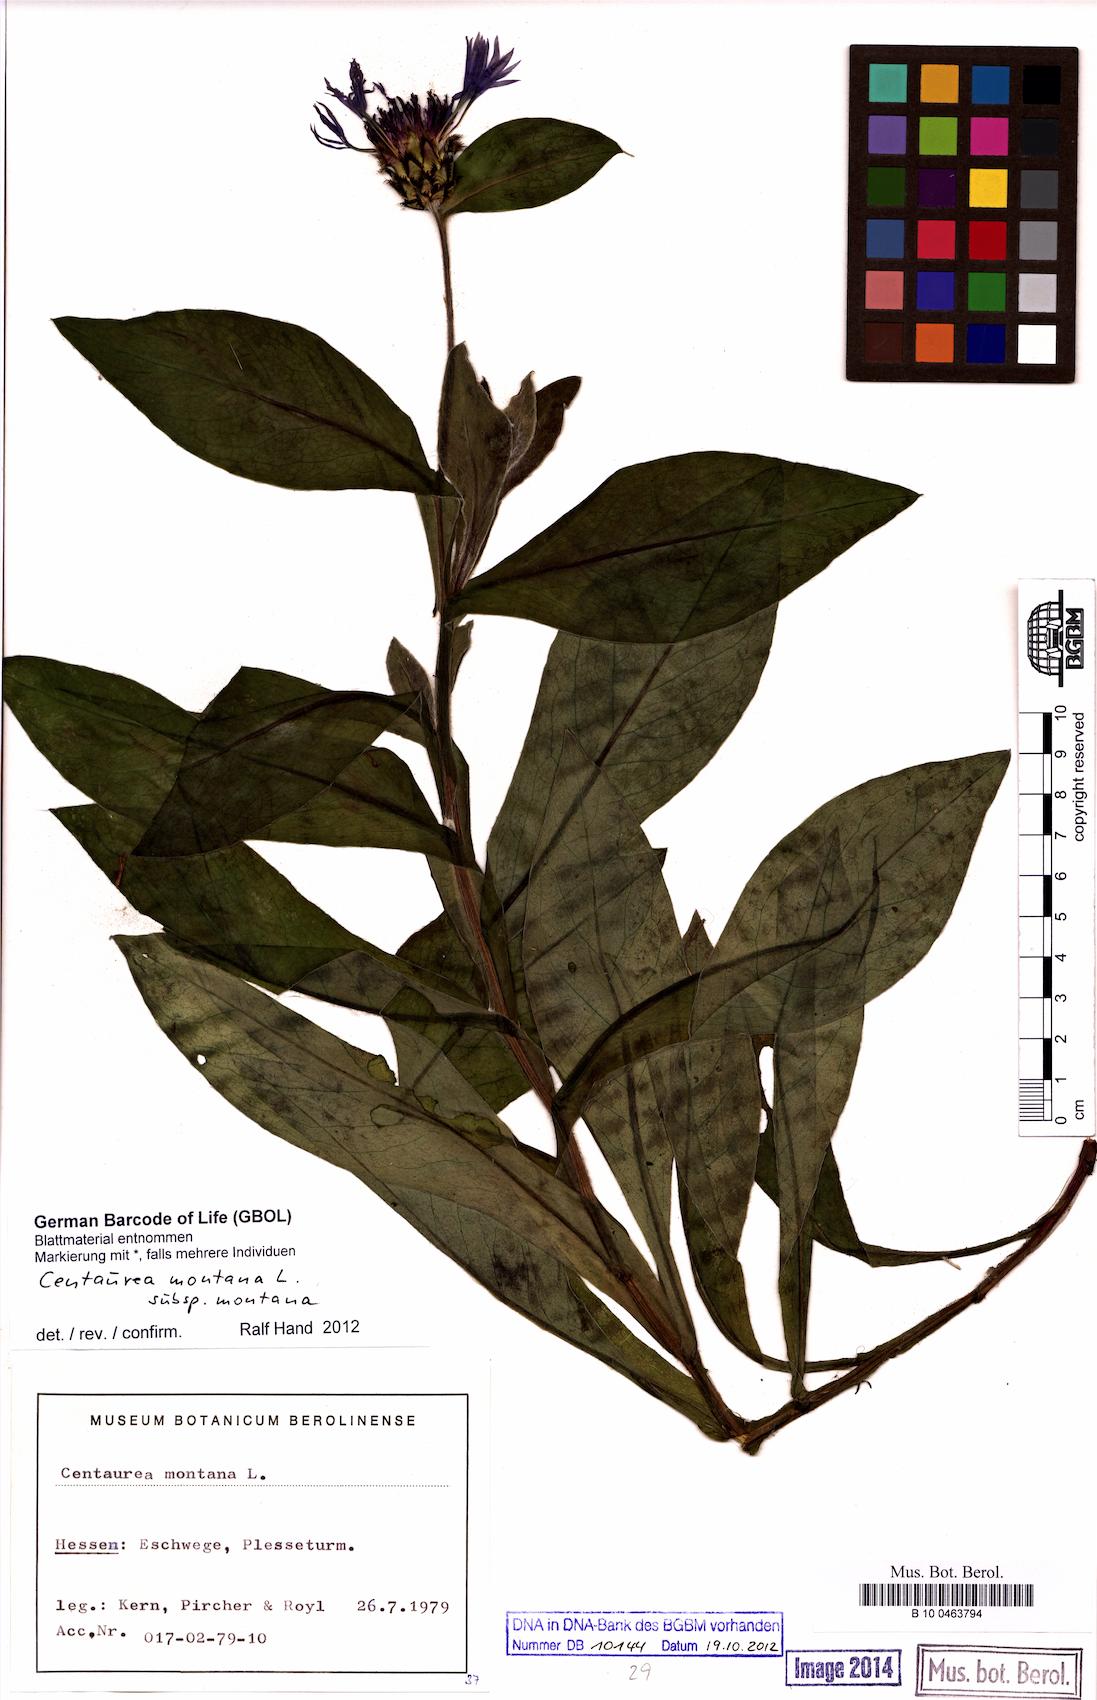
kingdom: Plantae
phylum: Tracheophyta
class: Magnoliopsida
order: Asterales
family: Asteraceae
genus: Centaurea
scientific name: Centaurea montana
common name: Perennial cornflower
